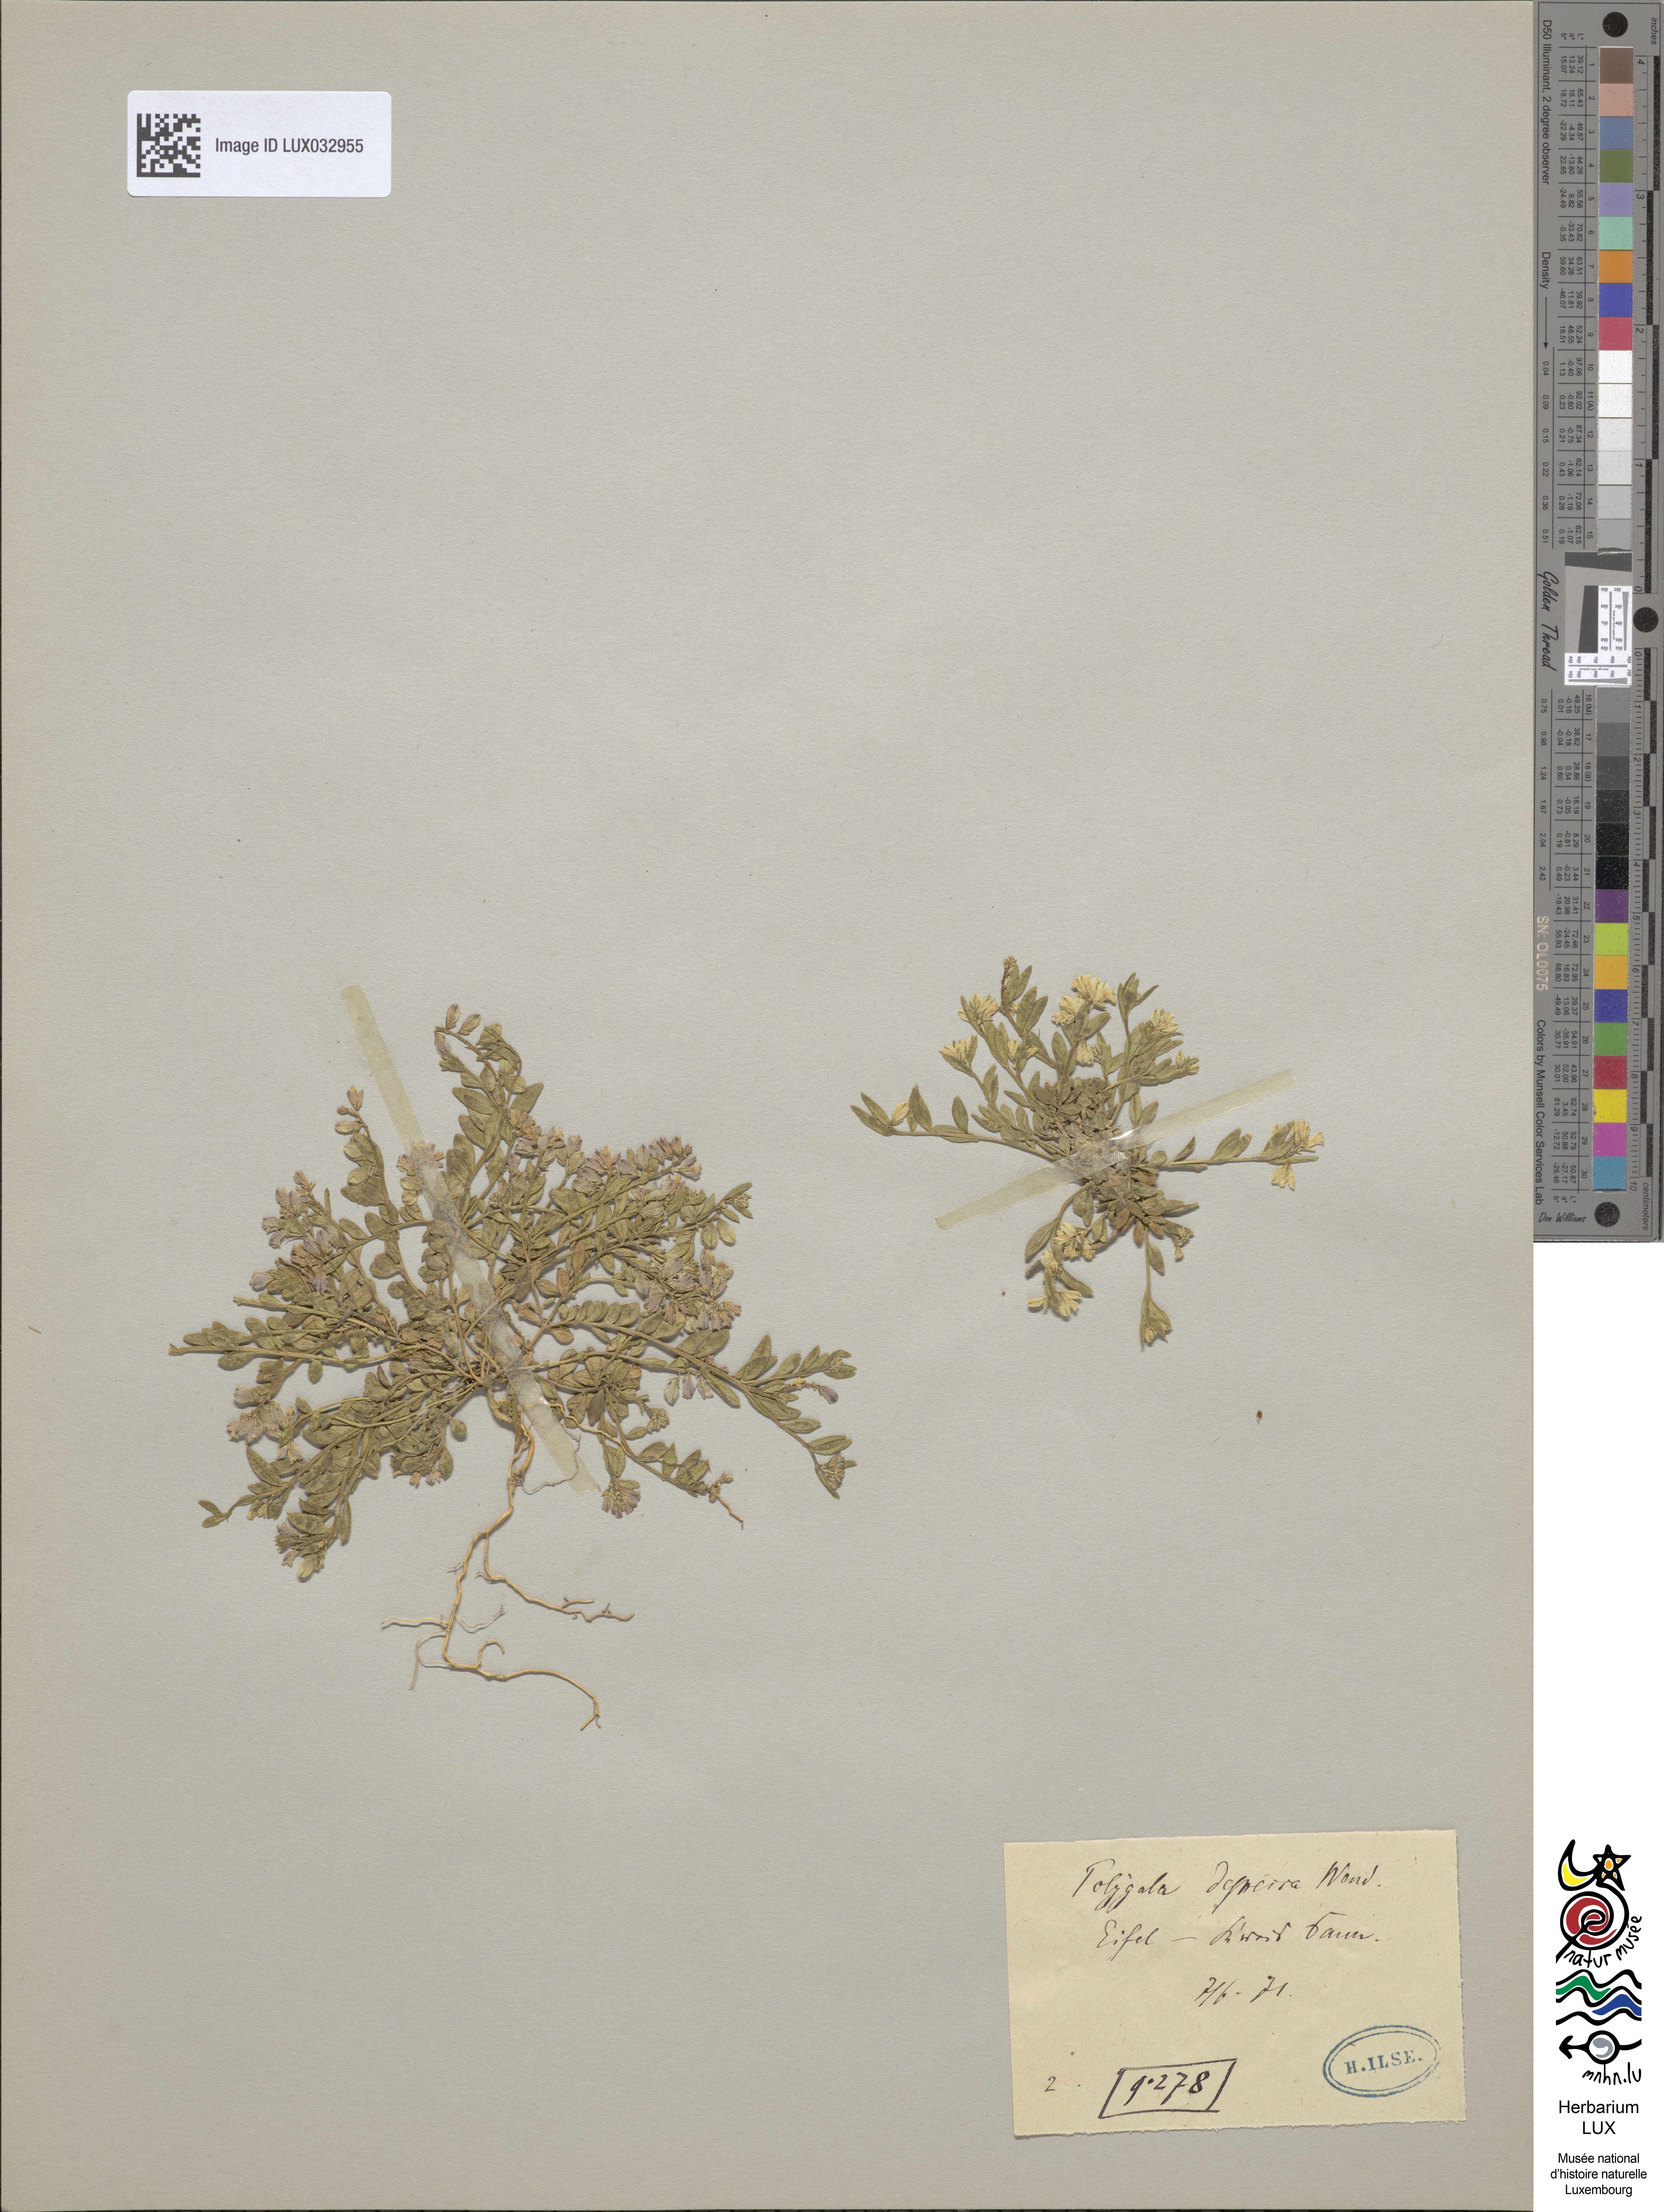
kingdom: Plantae
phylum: Tracheophyta
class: Magnoliopsida
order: Fabales
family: Polygalaceae
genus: Polygala
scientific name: Polygala serpyllifolia
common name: Heath milkwort
